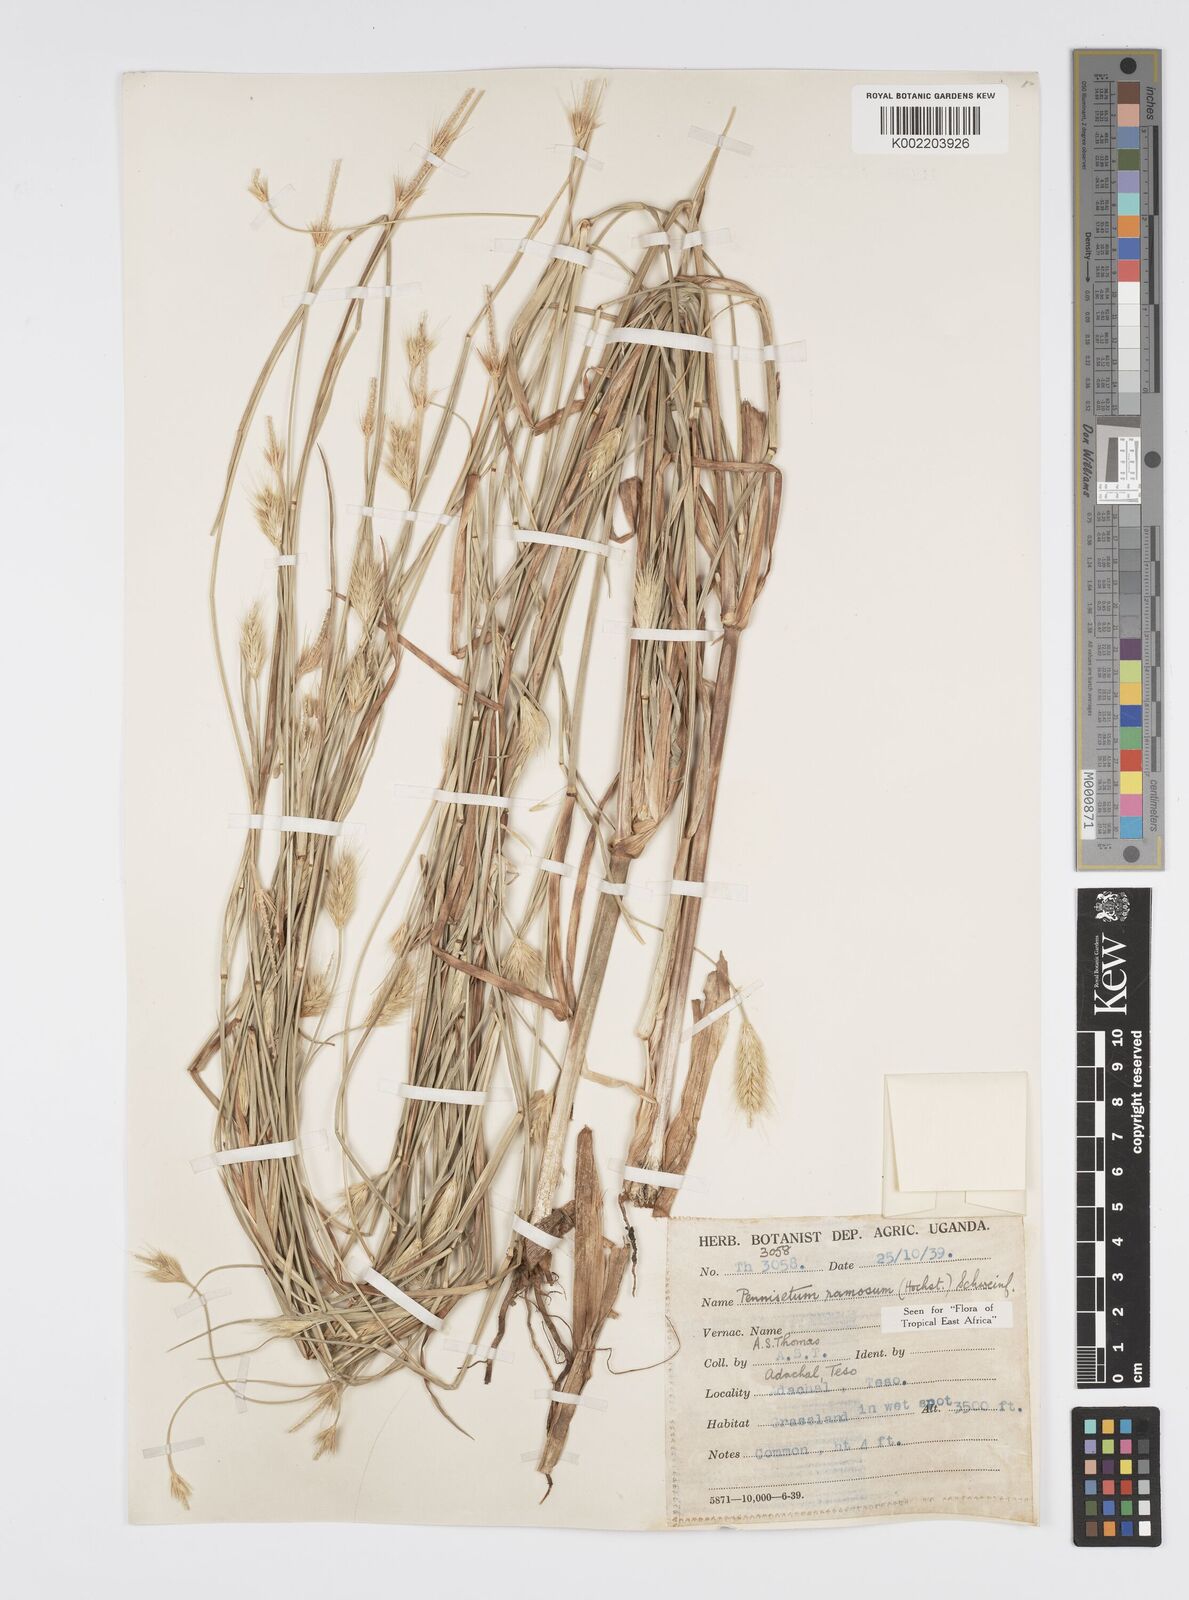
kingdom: Plantae
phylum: Tracheophyta
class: Liliopsida
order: Poales
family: Poaceae
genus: Cenchrus
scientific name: Cenchrus ramosus
